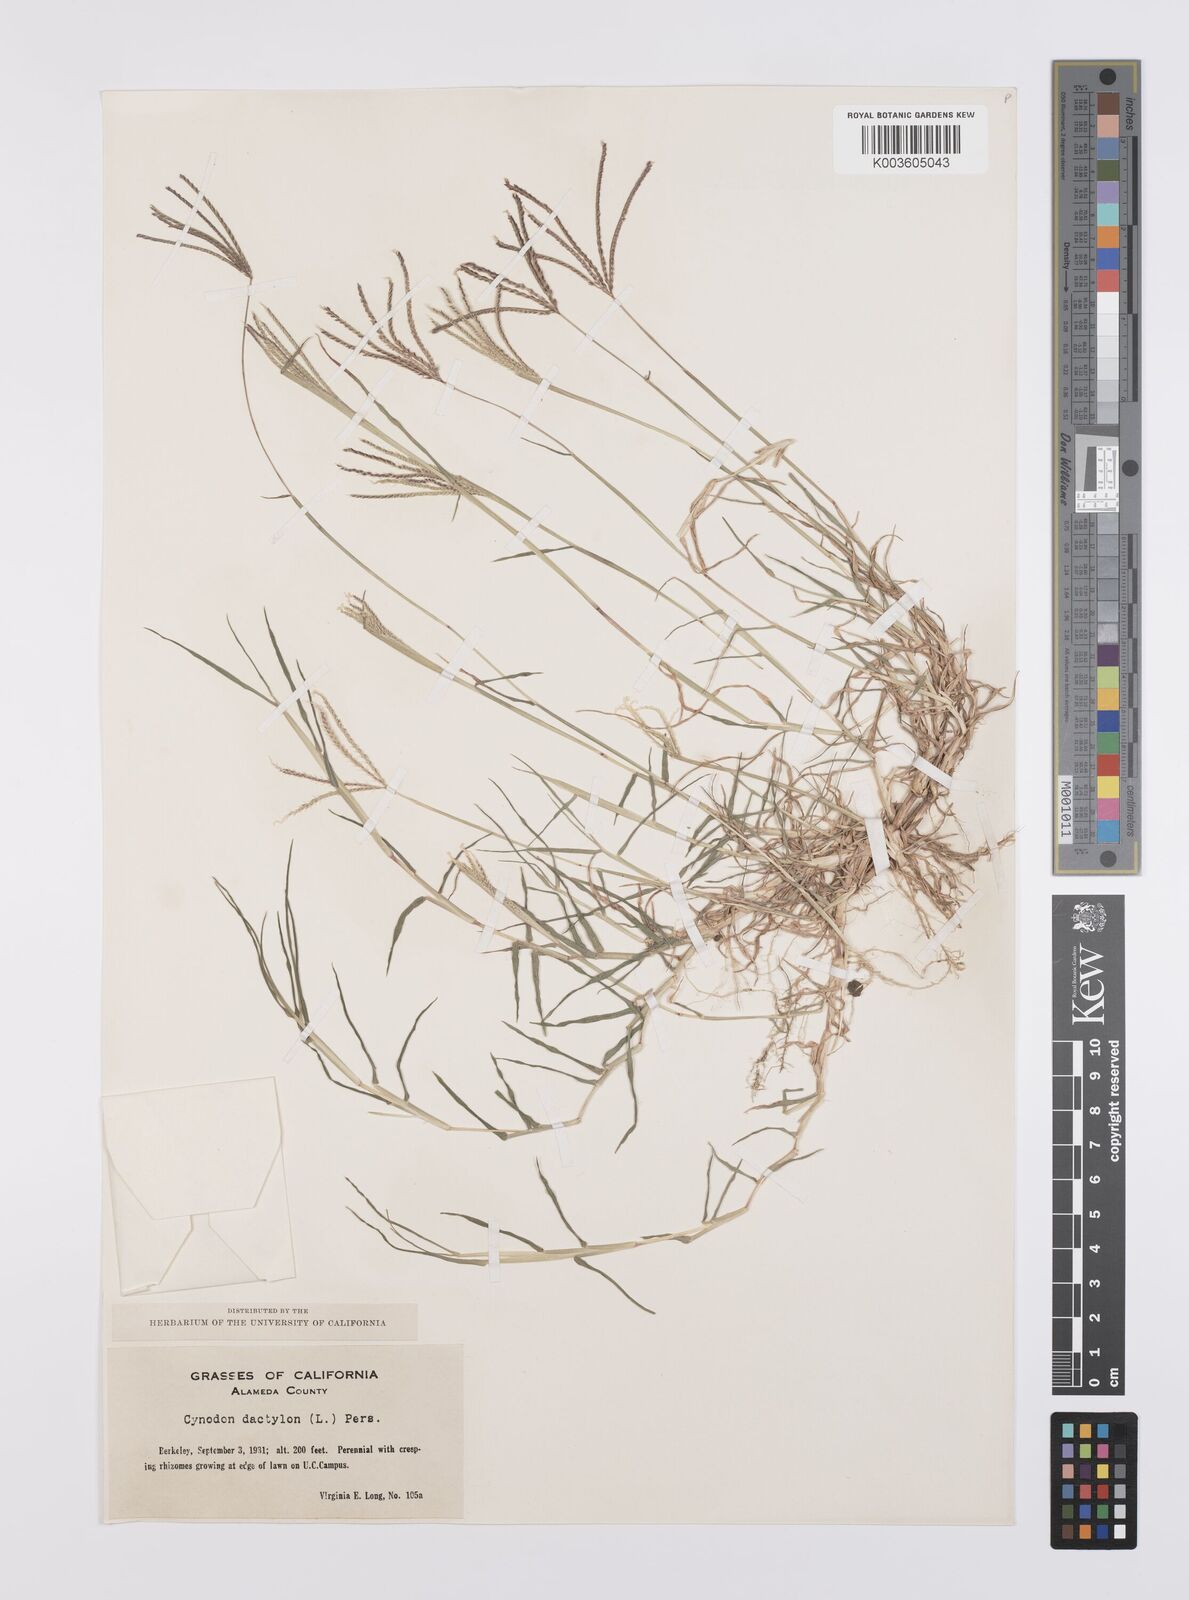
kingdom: Plantae
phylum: Tracheophyta
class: Liliopsida
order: Poales
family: Poaceae
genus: Cynodon
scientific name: Cynodon dactylon
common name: Bermuda grass
